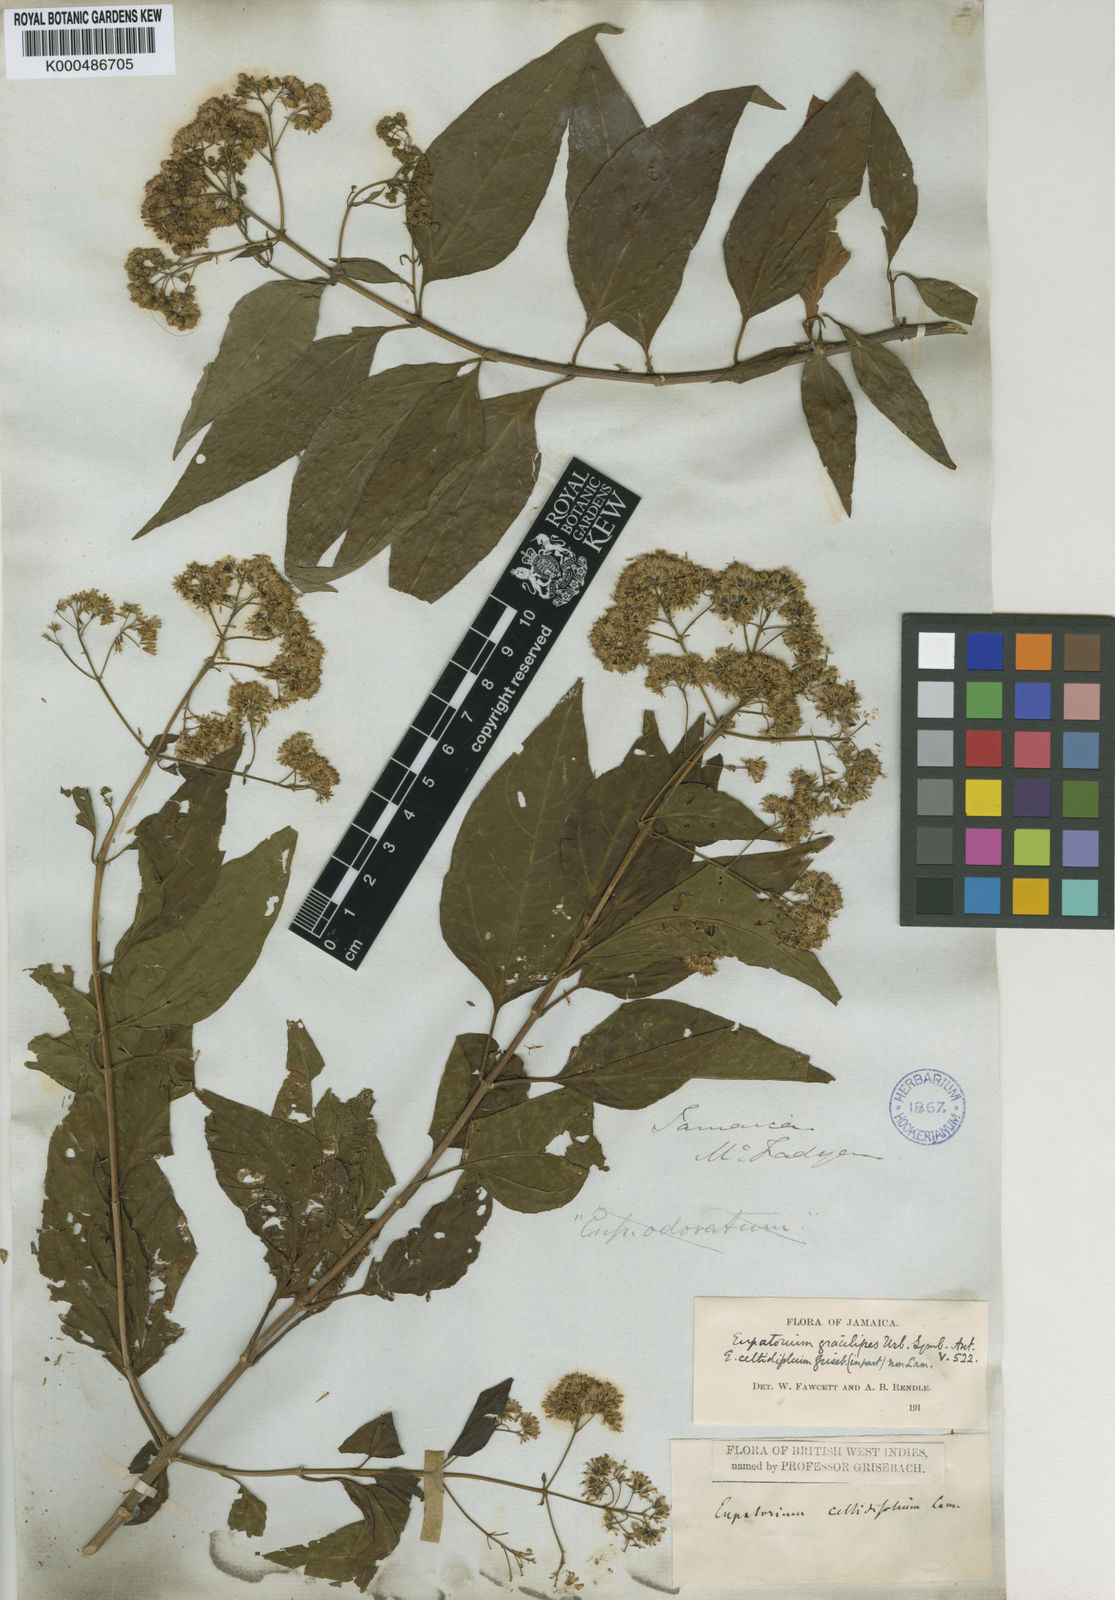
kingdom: Plantae
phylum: Tracheophyta
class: Magnoliopsida
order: Asterales
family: Asteraceae
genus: Koanophyllon
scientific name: Koanophyllon gracilipes
